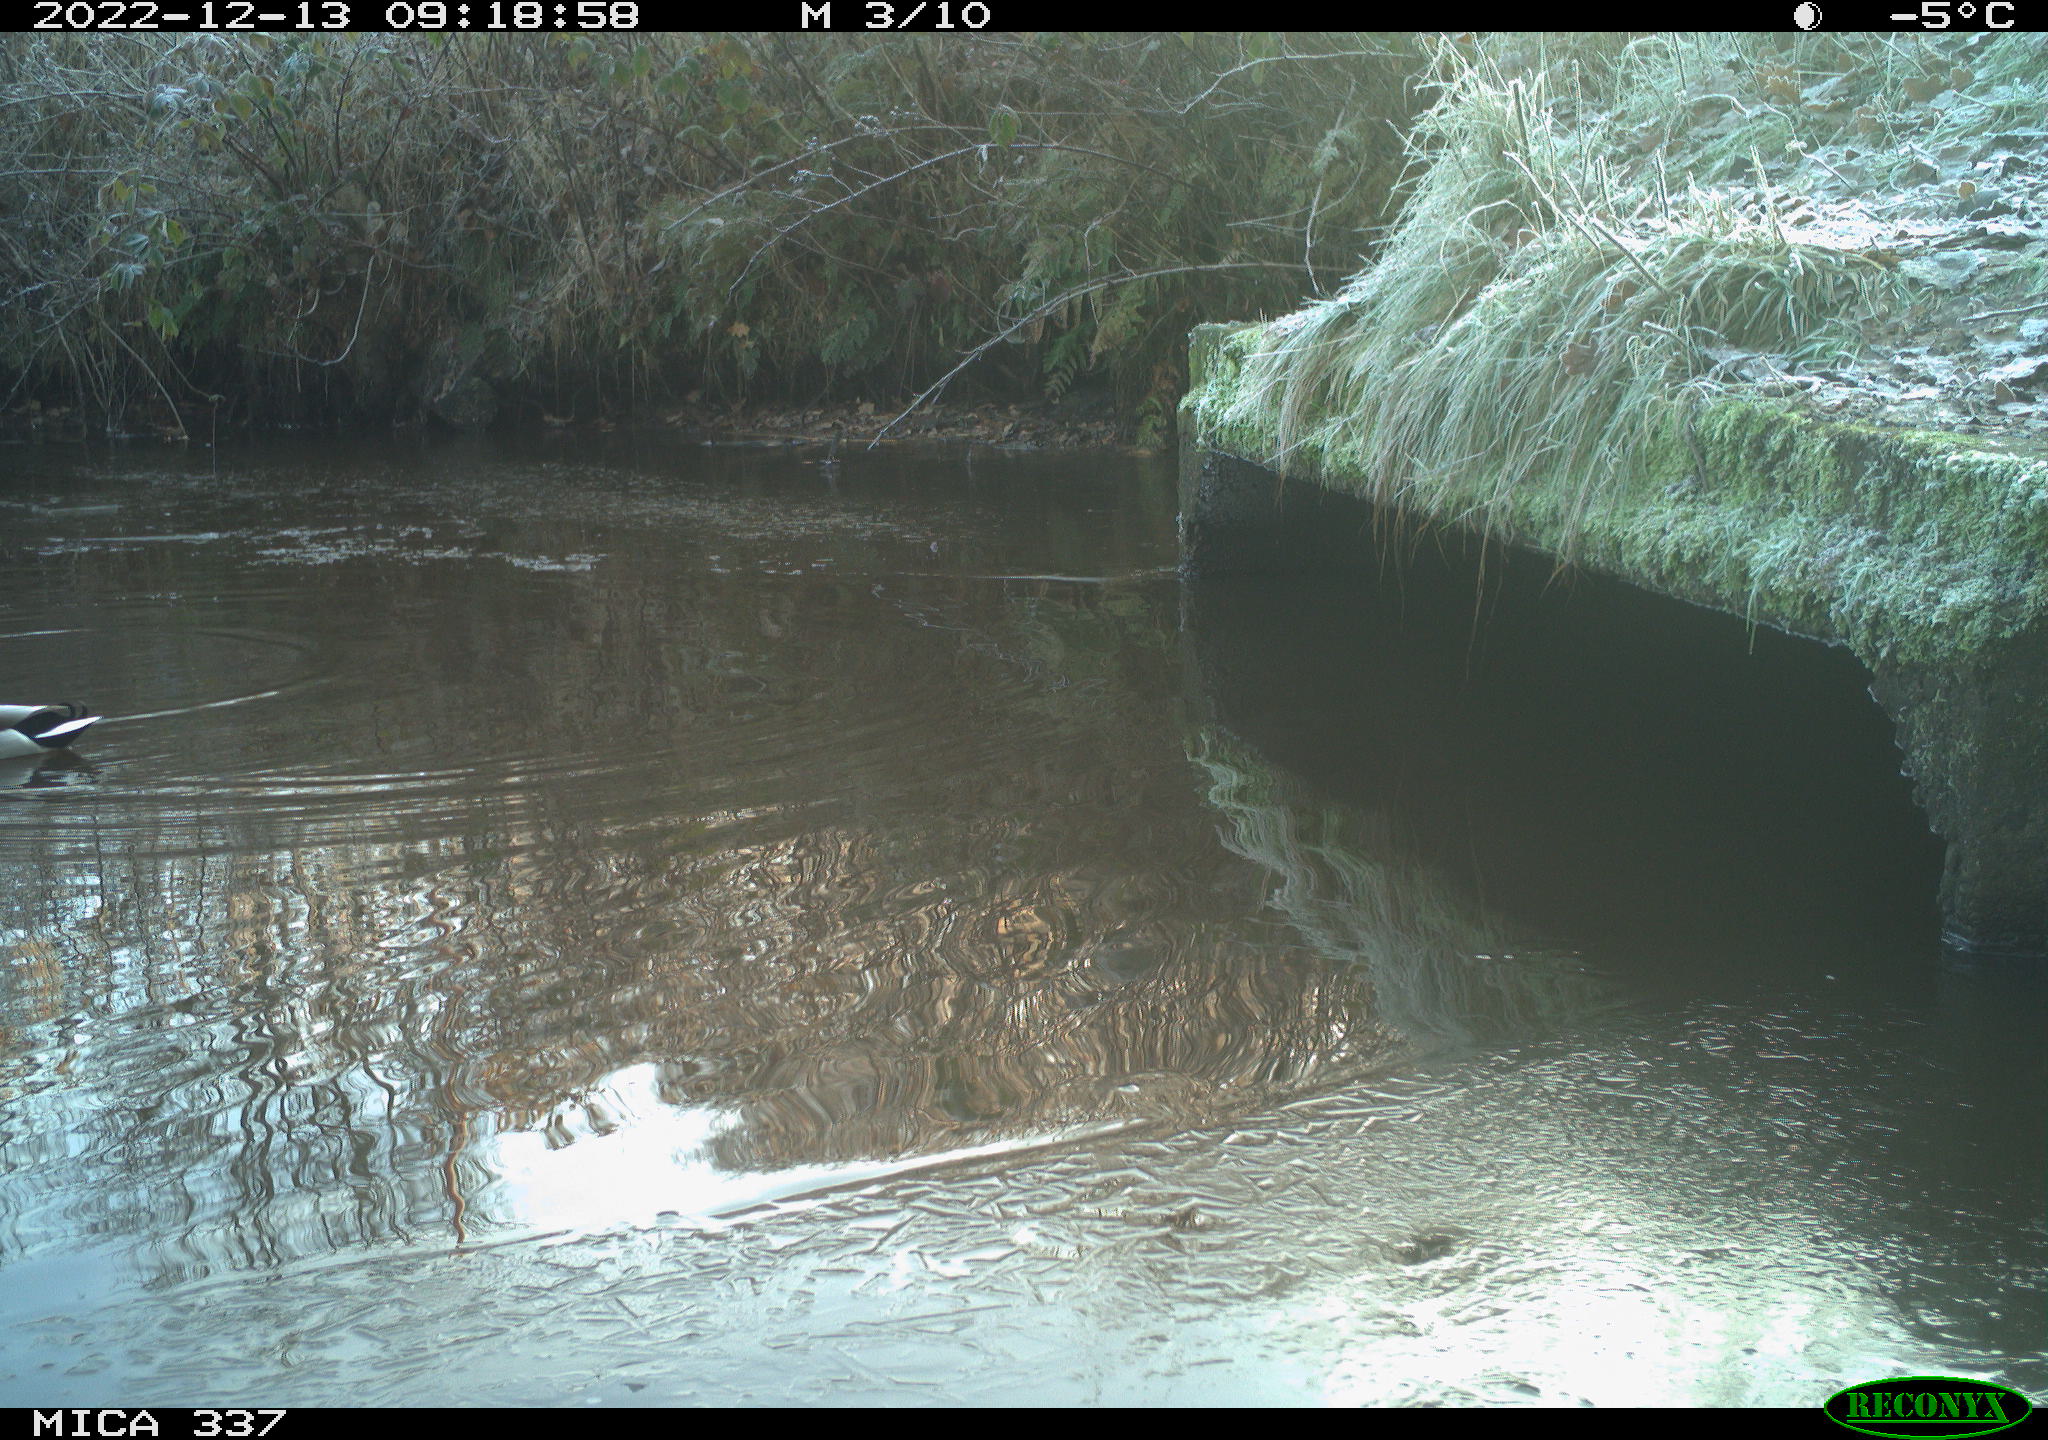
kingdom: Animalia
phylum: Chordata
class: Aves
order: Anseriformes
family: Anatidae
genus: Anas
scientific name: Anas platyrhynchos
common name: Mallard
